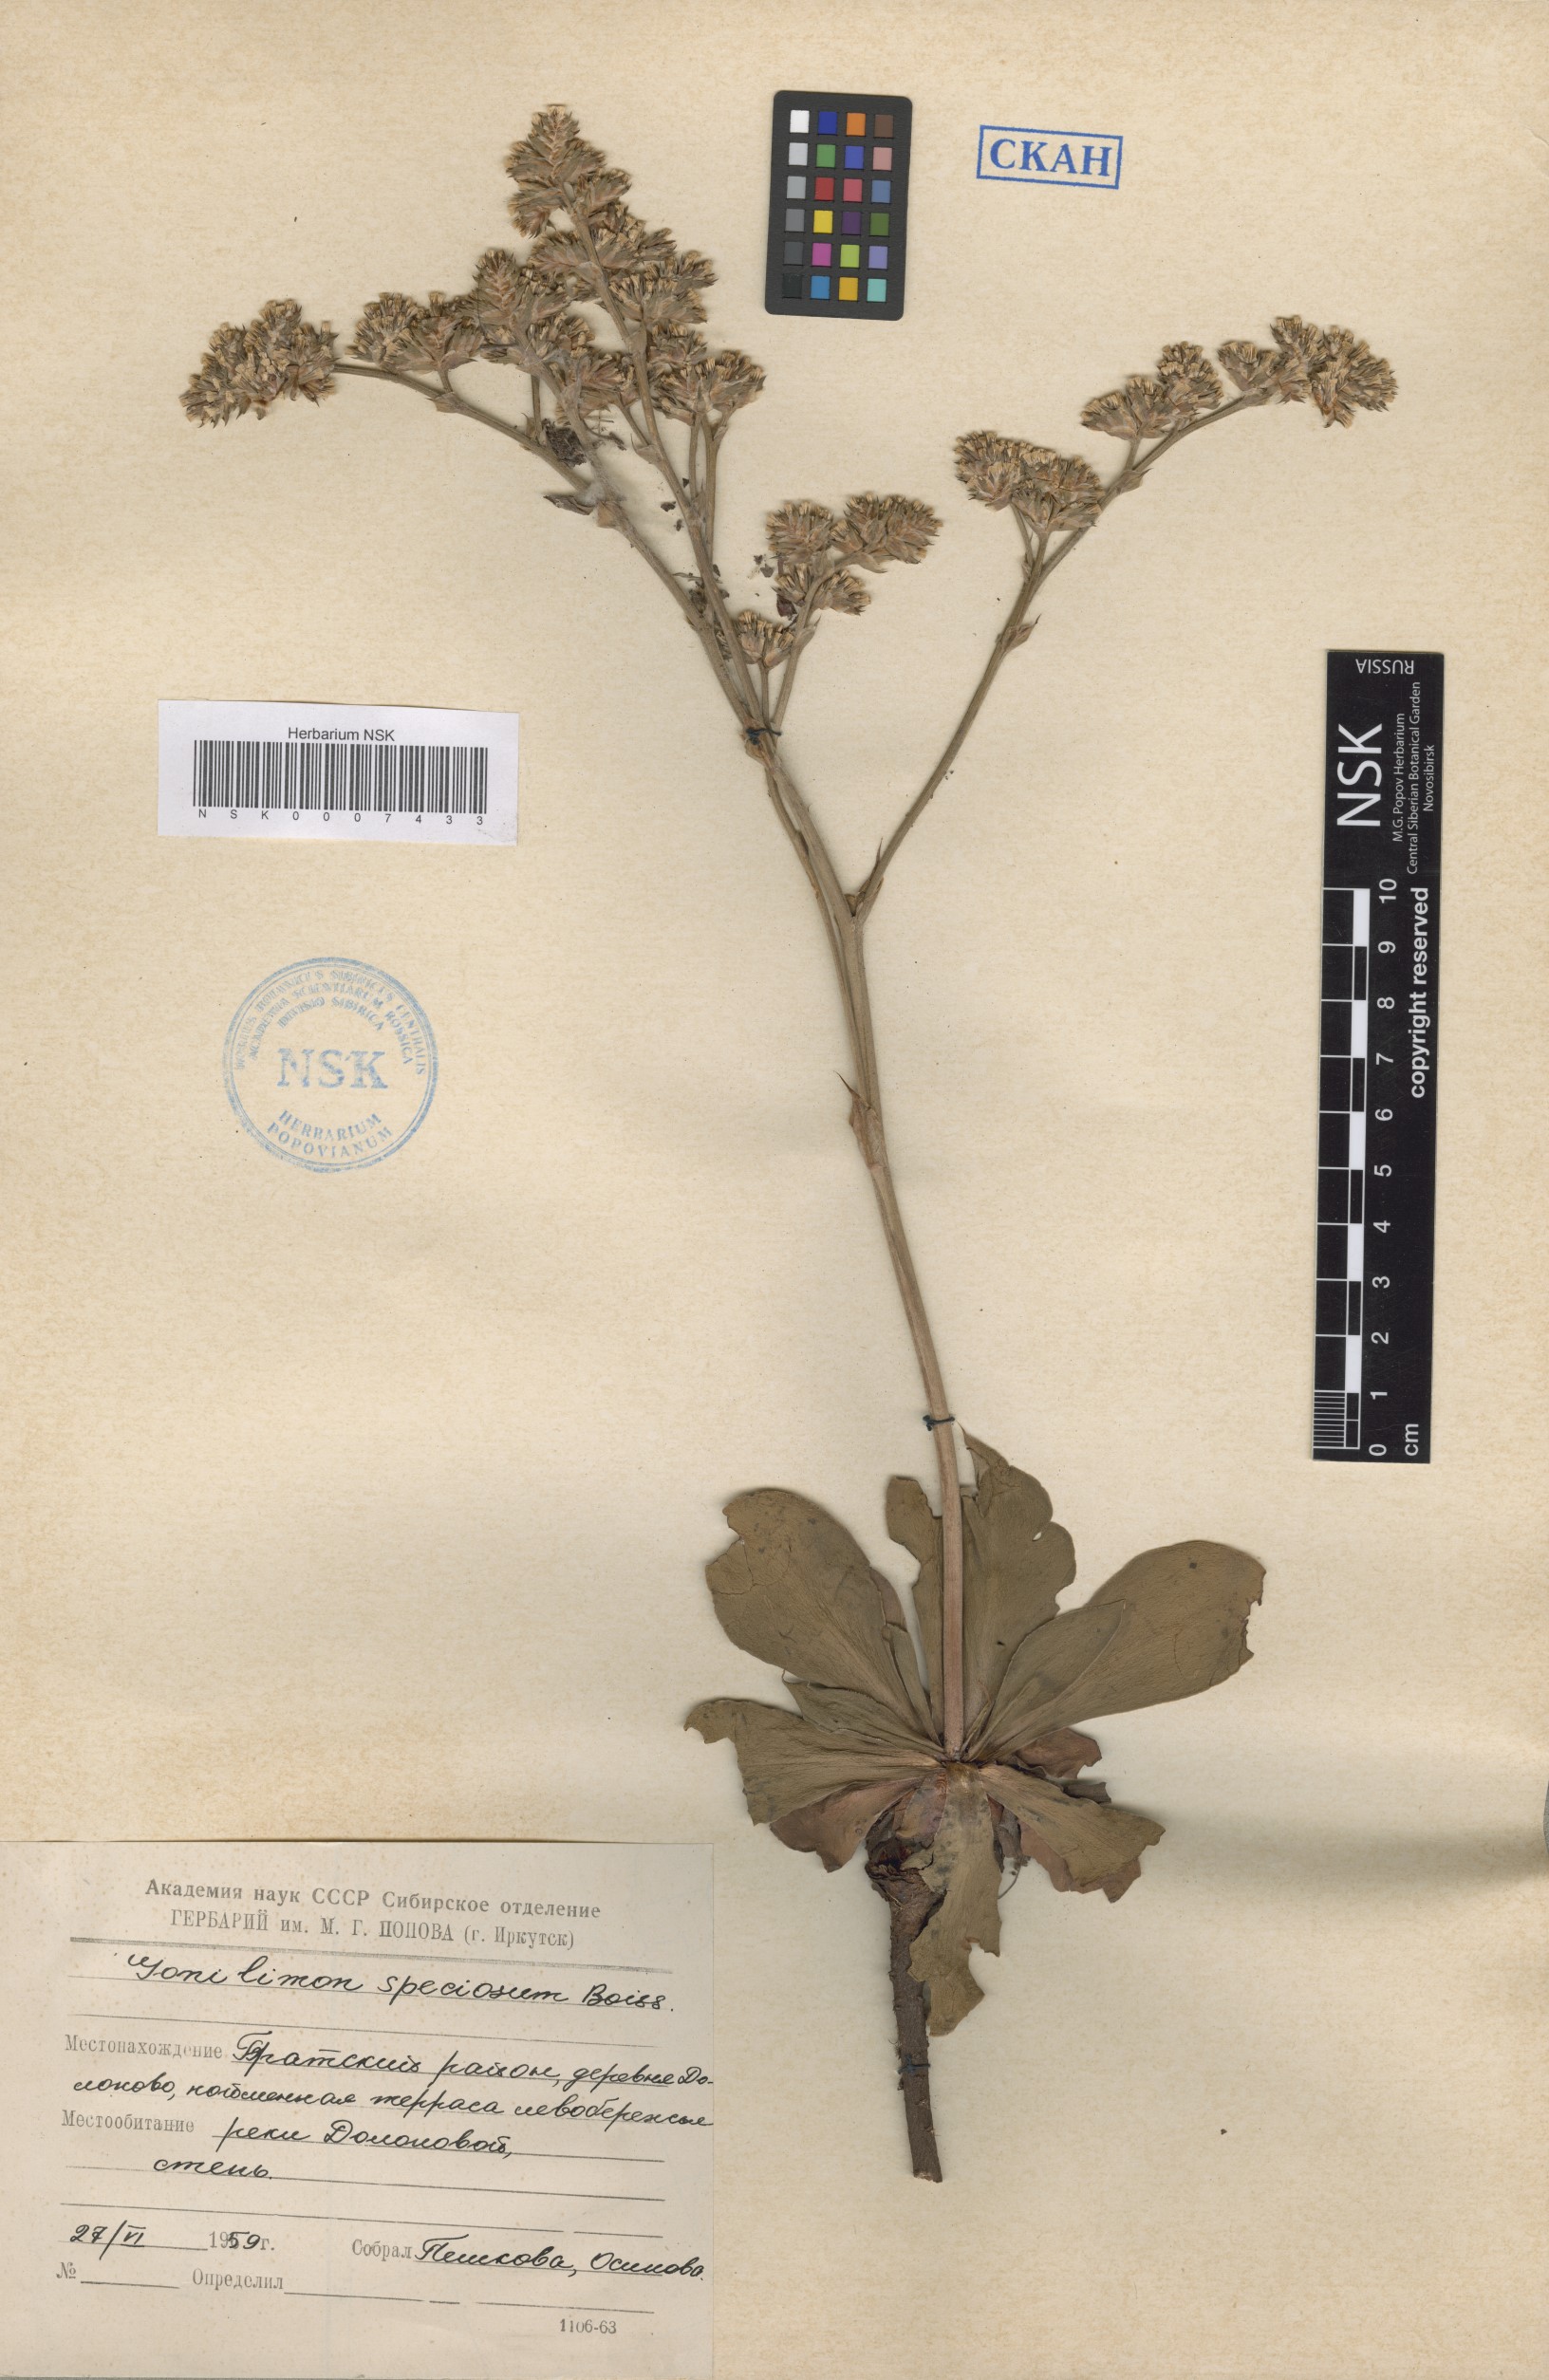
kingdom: Plantae
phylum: Tracheophyta
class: Magnoliopsida
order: Caryophyllales
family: Plumbaginaceae
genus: Goniolimon
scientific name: Goniolimon speciosum
